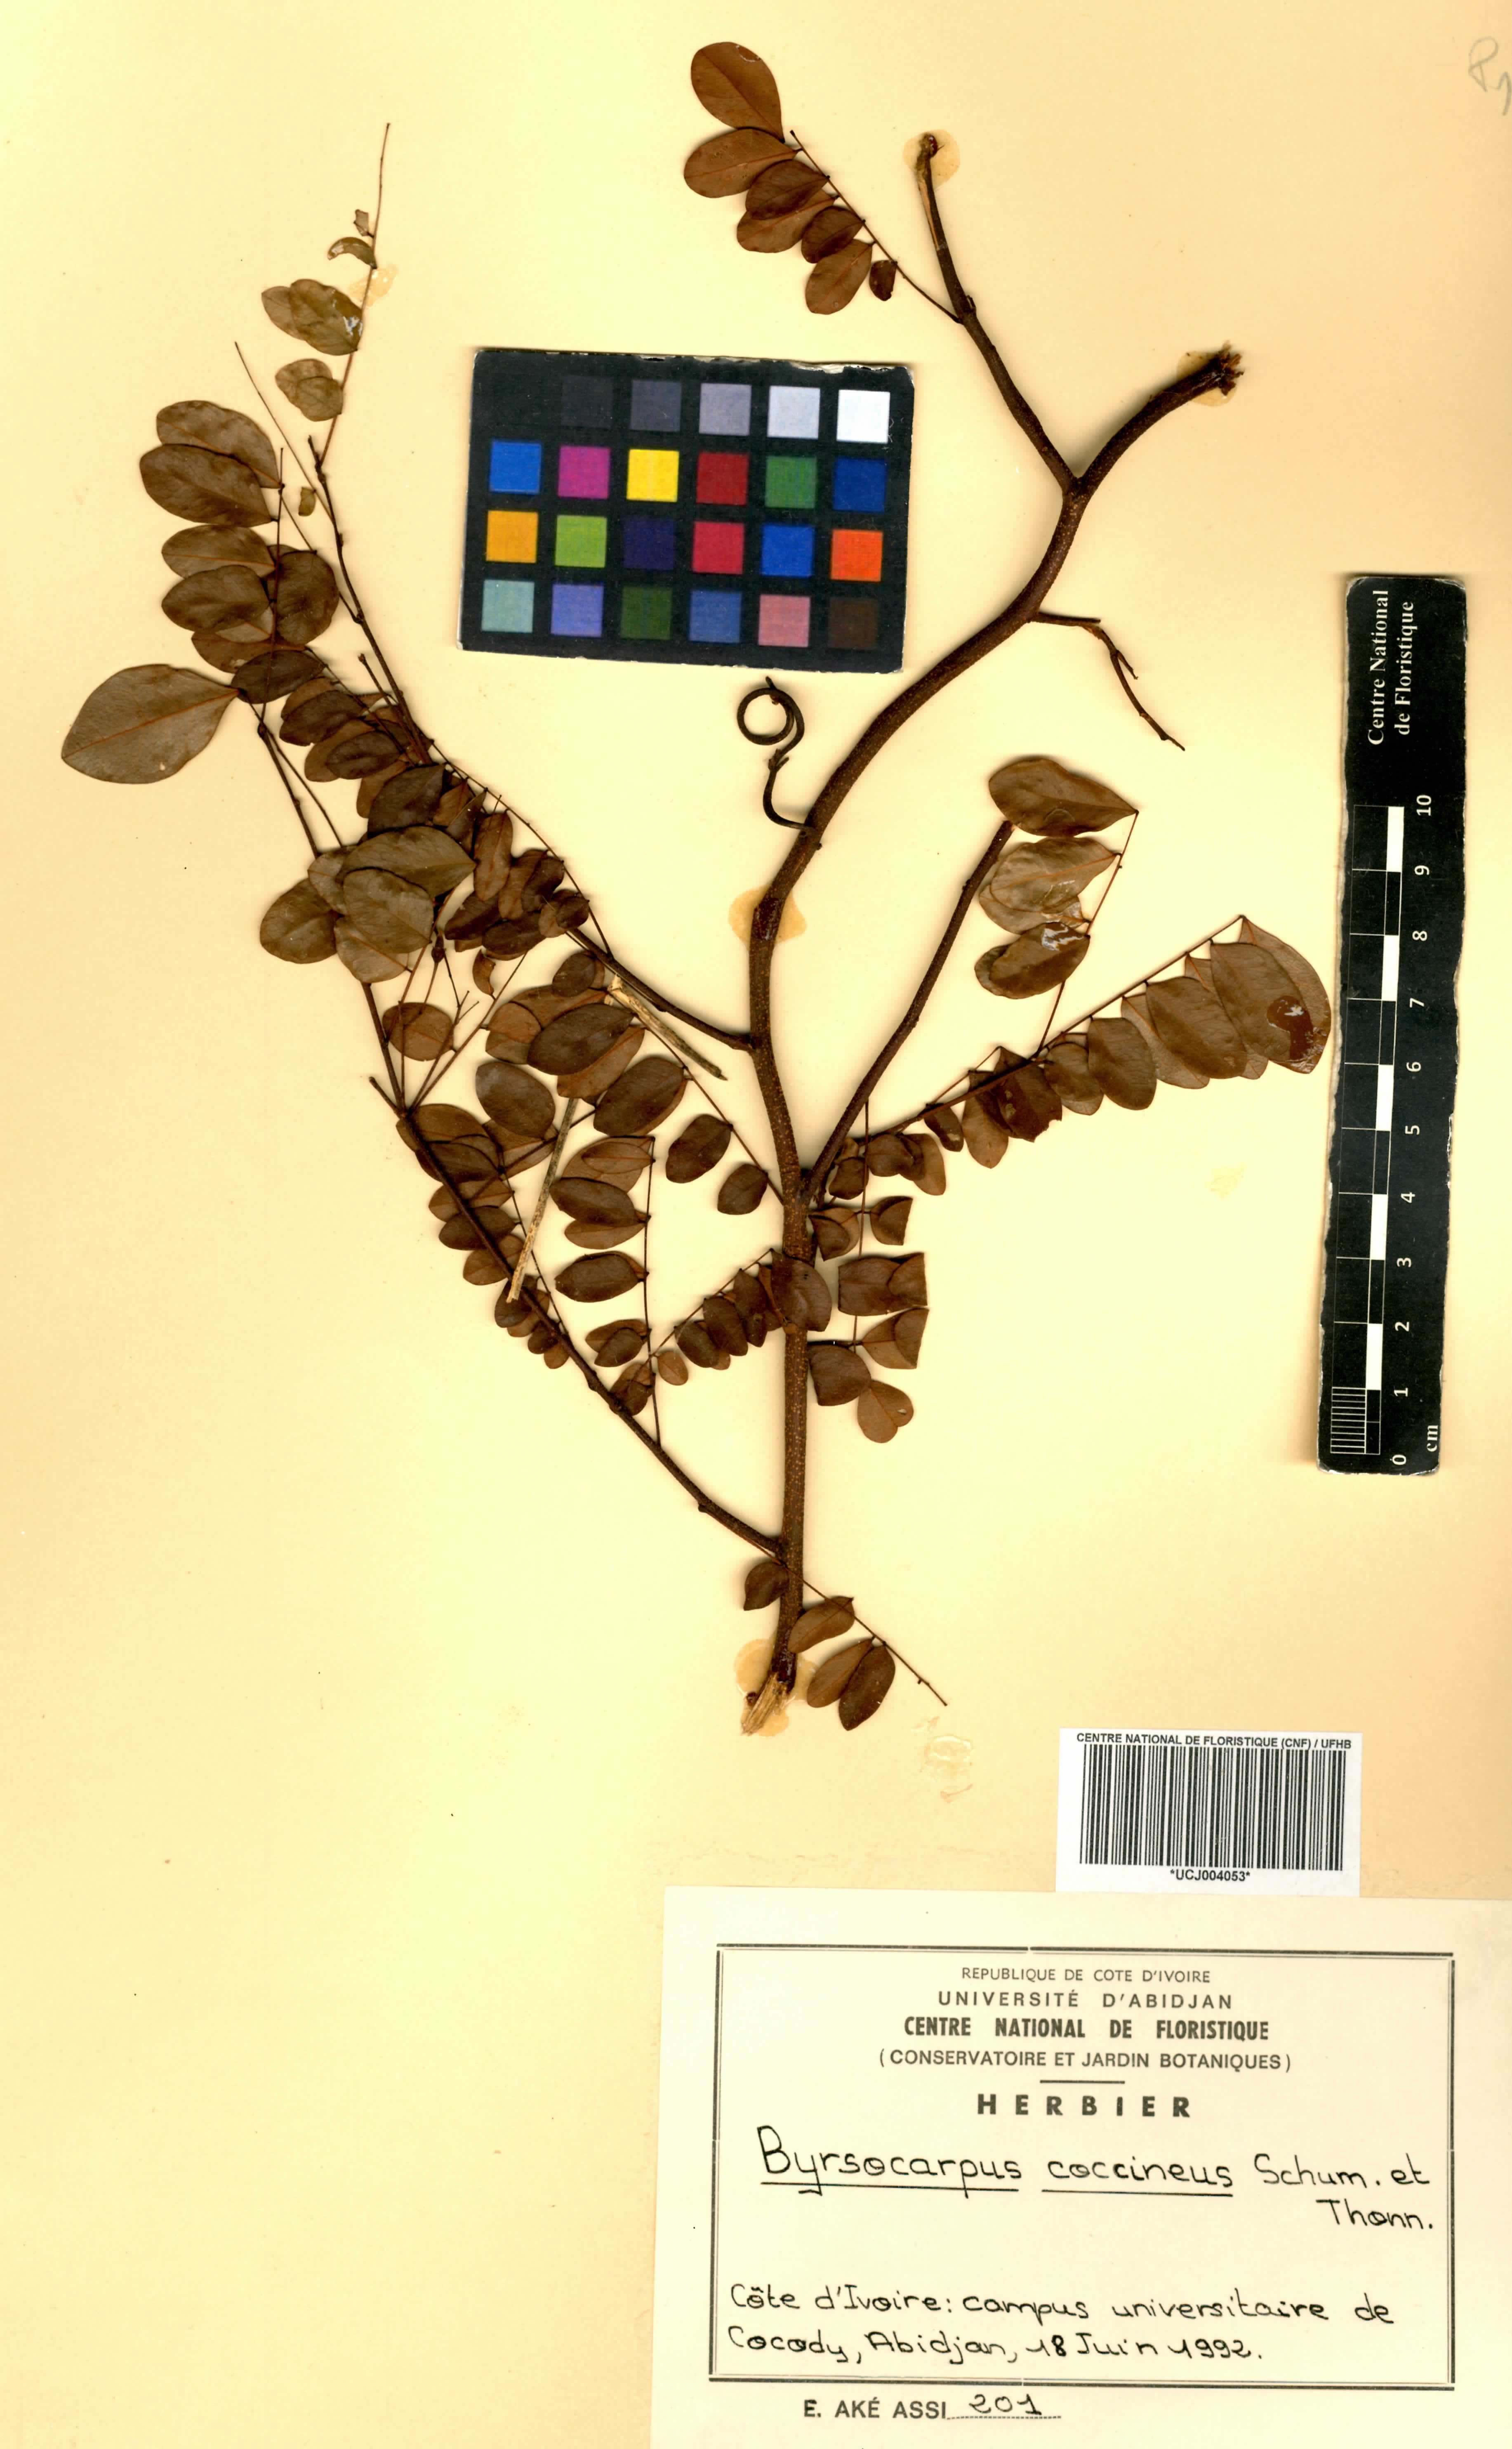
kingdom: Plantae
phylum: Tracheophyta
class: Magnoliopsida
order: Oxalidales
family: Connaraceae
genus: Rourea
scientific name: Rourea coccinea
